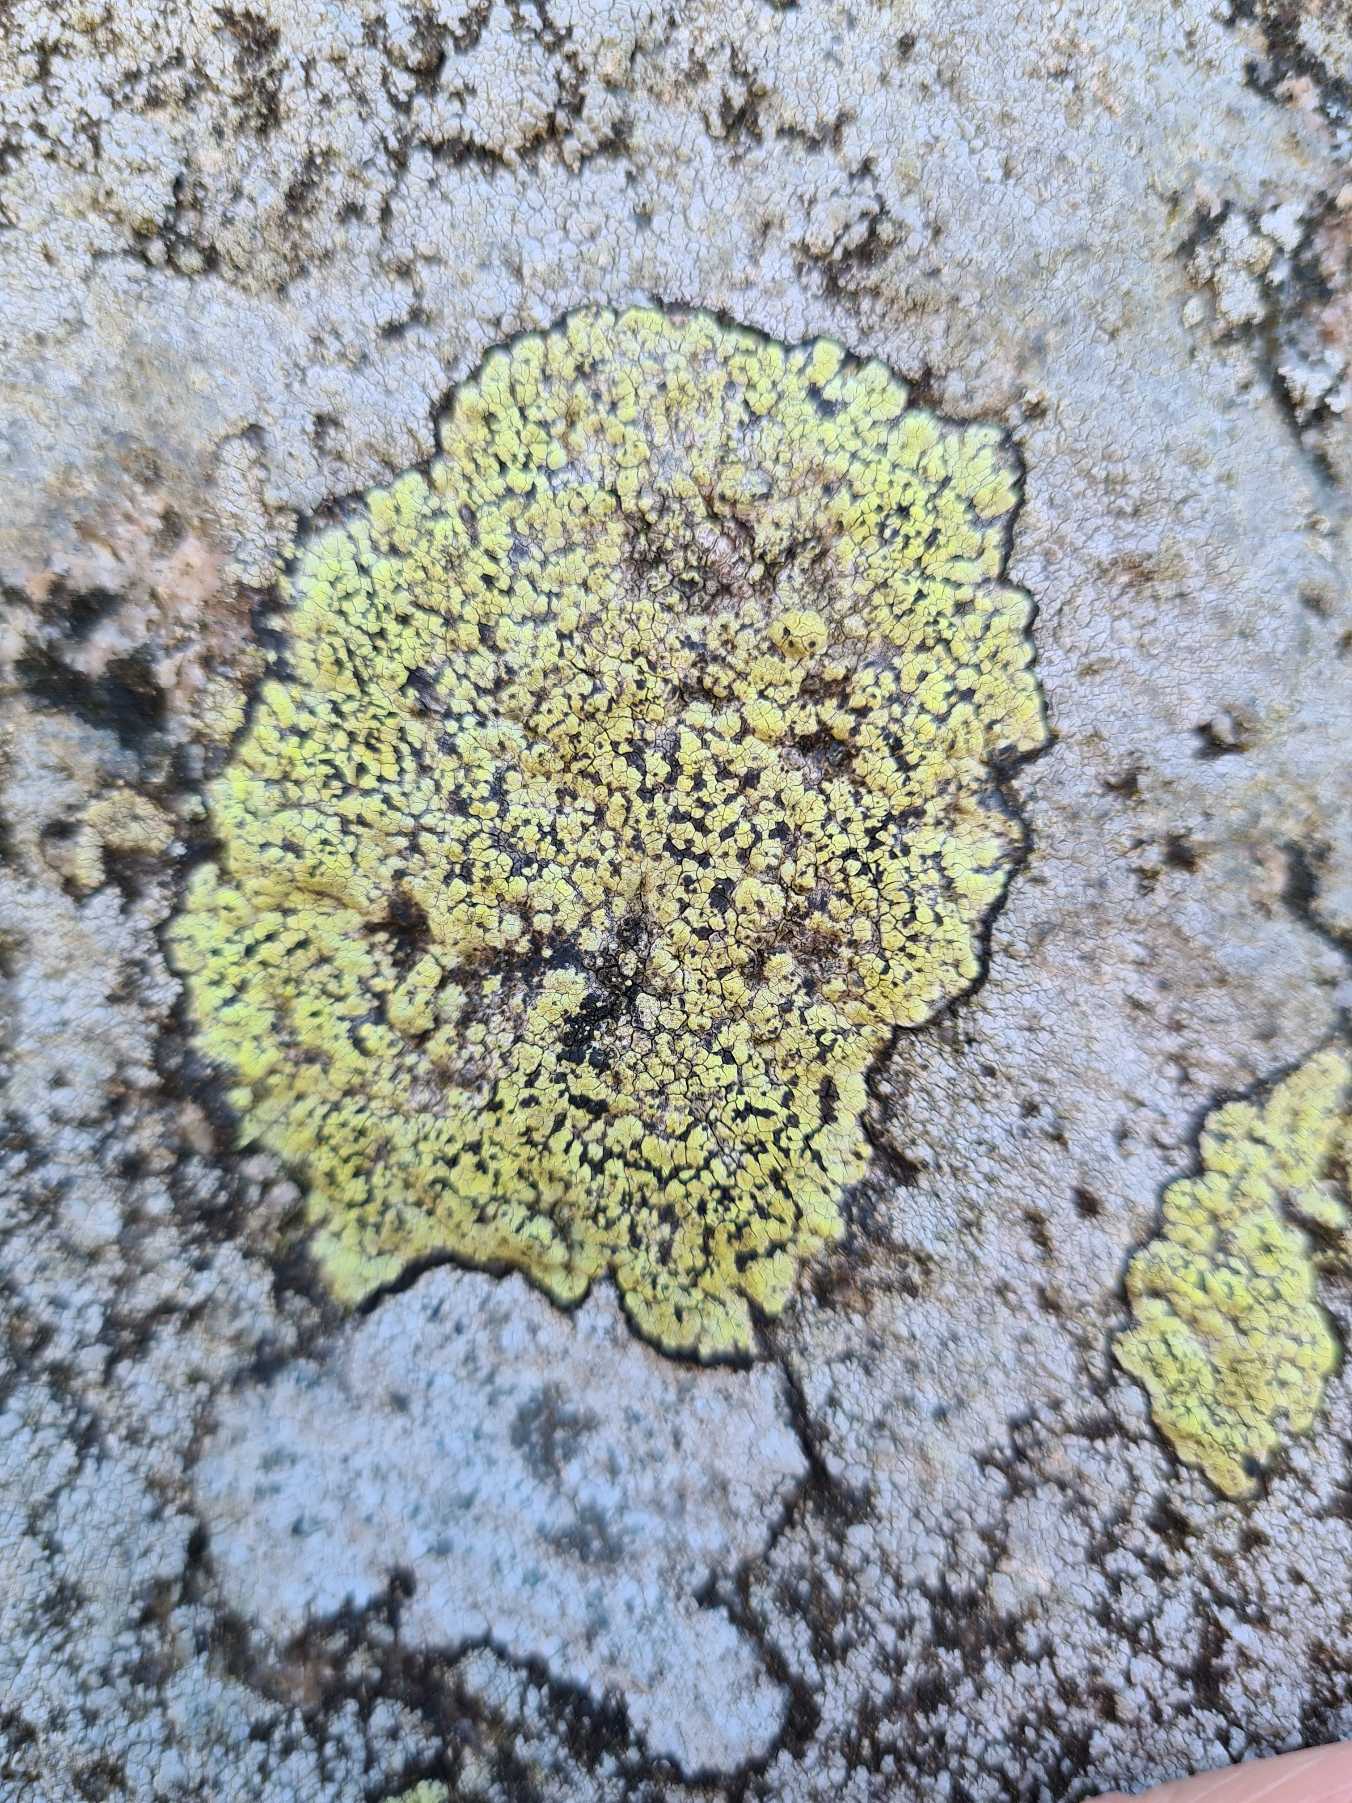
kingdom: Fungi
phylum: Ascomycota
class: Lecanoromycetes
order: Rhizocarpales
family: Rhizocarpaceae
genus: Rhizocarpon
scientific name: Rhizocarpon geographicum
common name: Gulgrøn landkortlav
